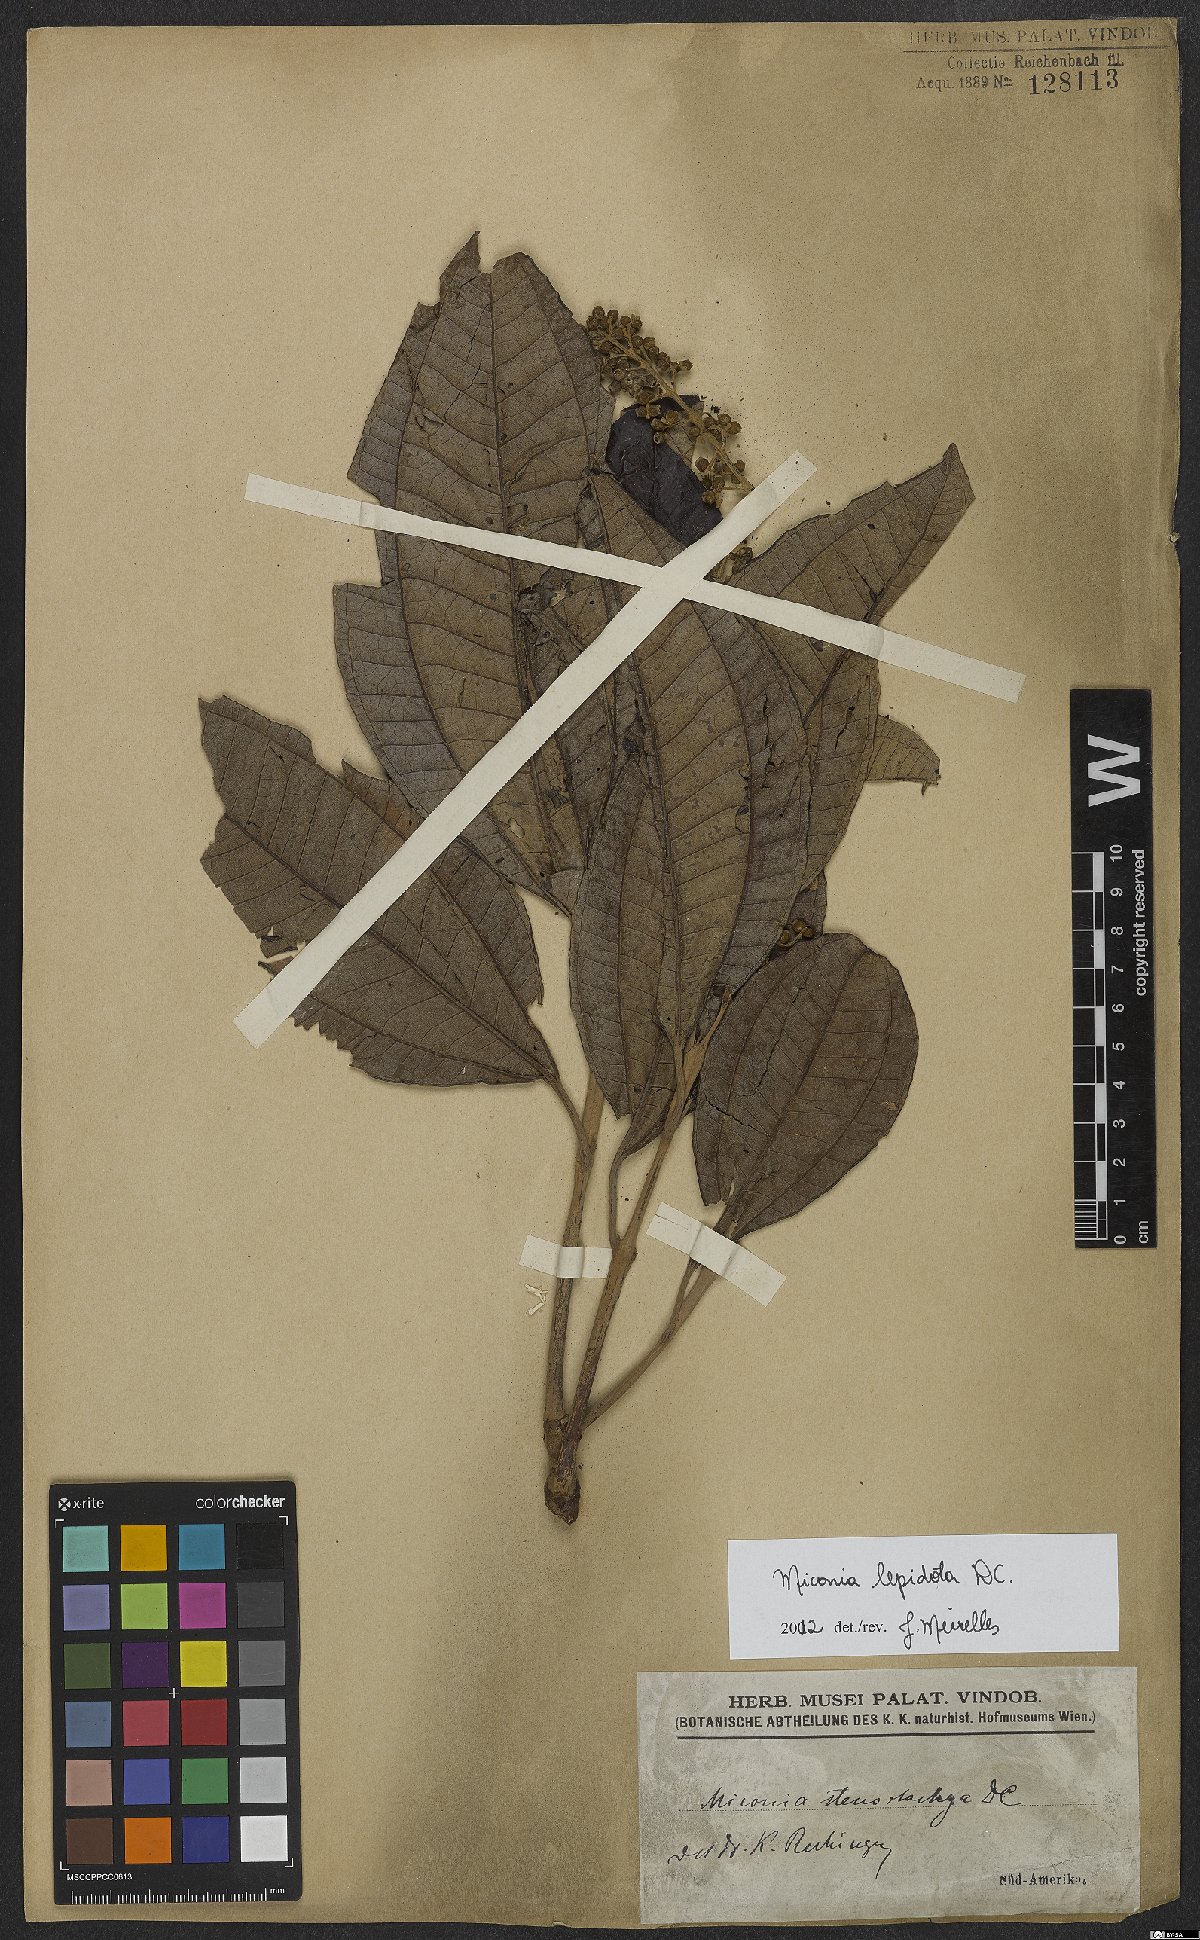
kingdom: Plantae
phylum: Tracheophyta
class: Magnoliopsida
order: Myrtales
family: Melastomataceae
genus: Miconia
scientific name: Miconia lepidota
